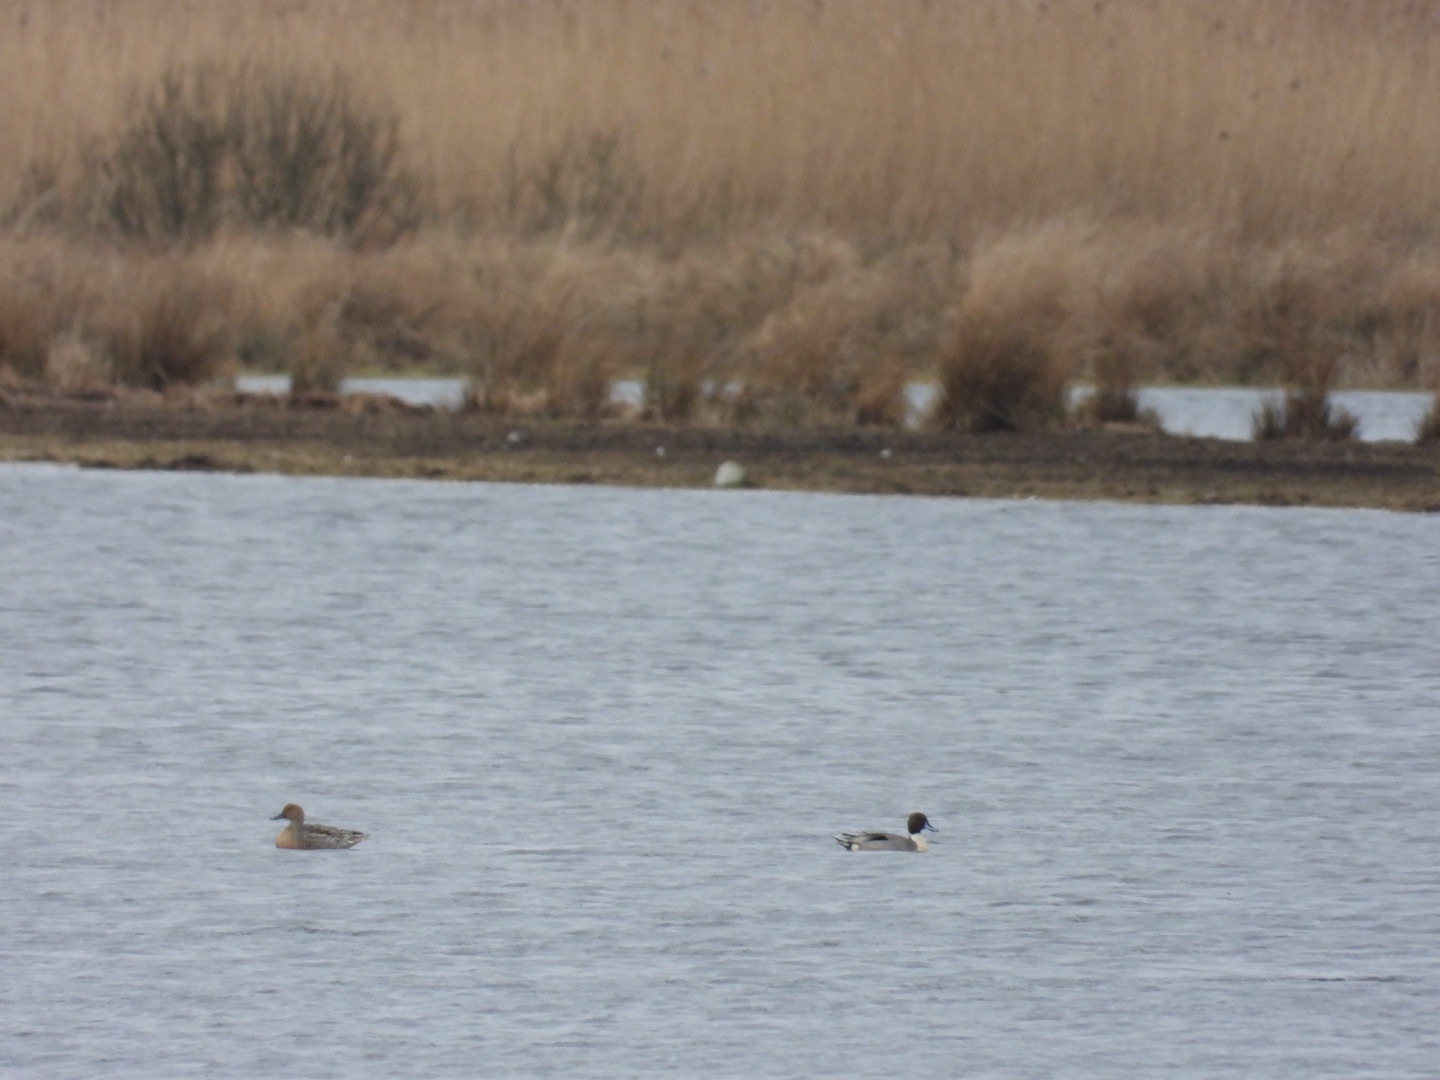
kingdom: Animalia
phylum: Chordata
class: Aves
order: Anseriformes
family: Anatidae
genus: Anas
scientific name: Anas acuta
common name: Spidsand
